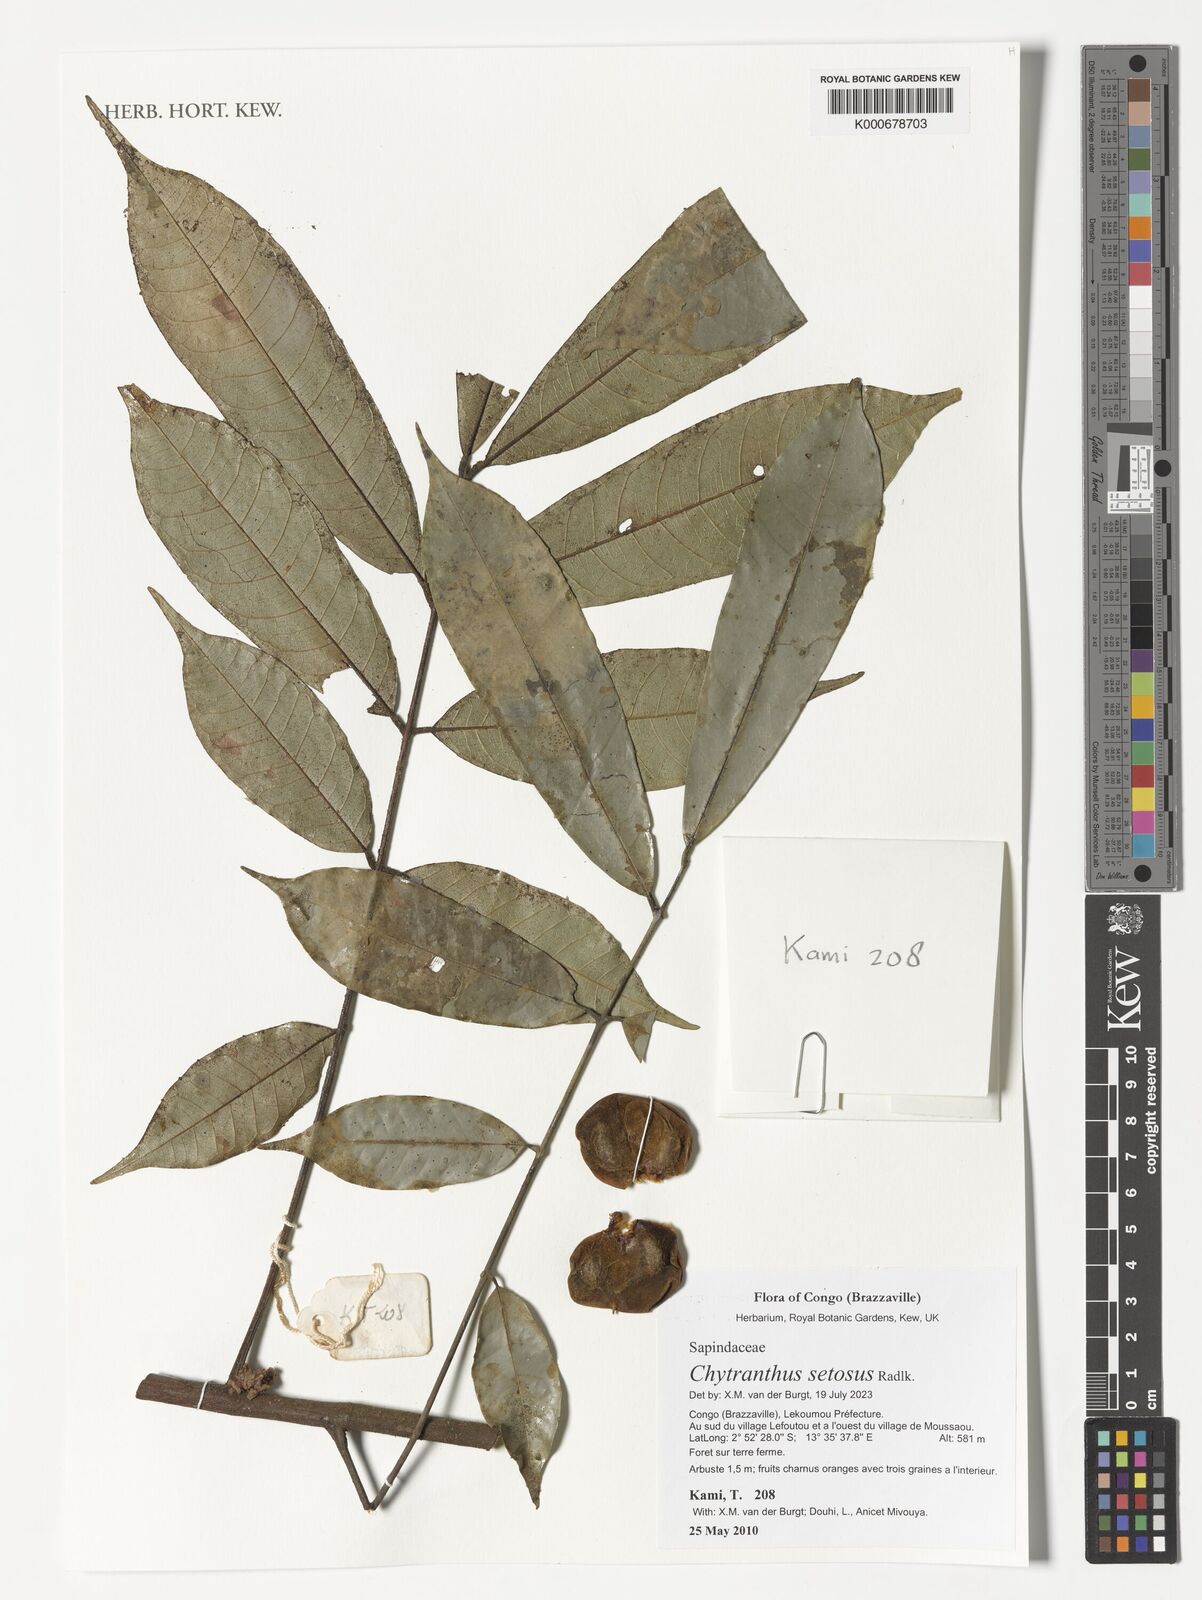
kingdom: Plantae
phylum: Tracheophyta
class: Magnoliopsida
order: Sapindales
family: Sapindaceae
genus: Chytranthus
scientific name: Chytranthus setosus
